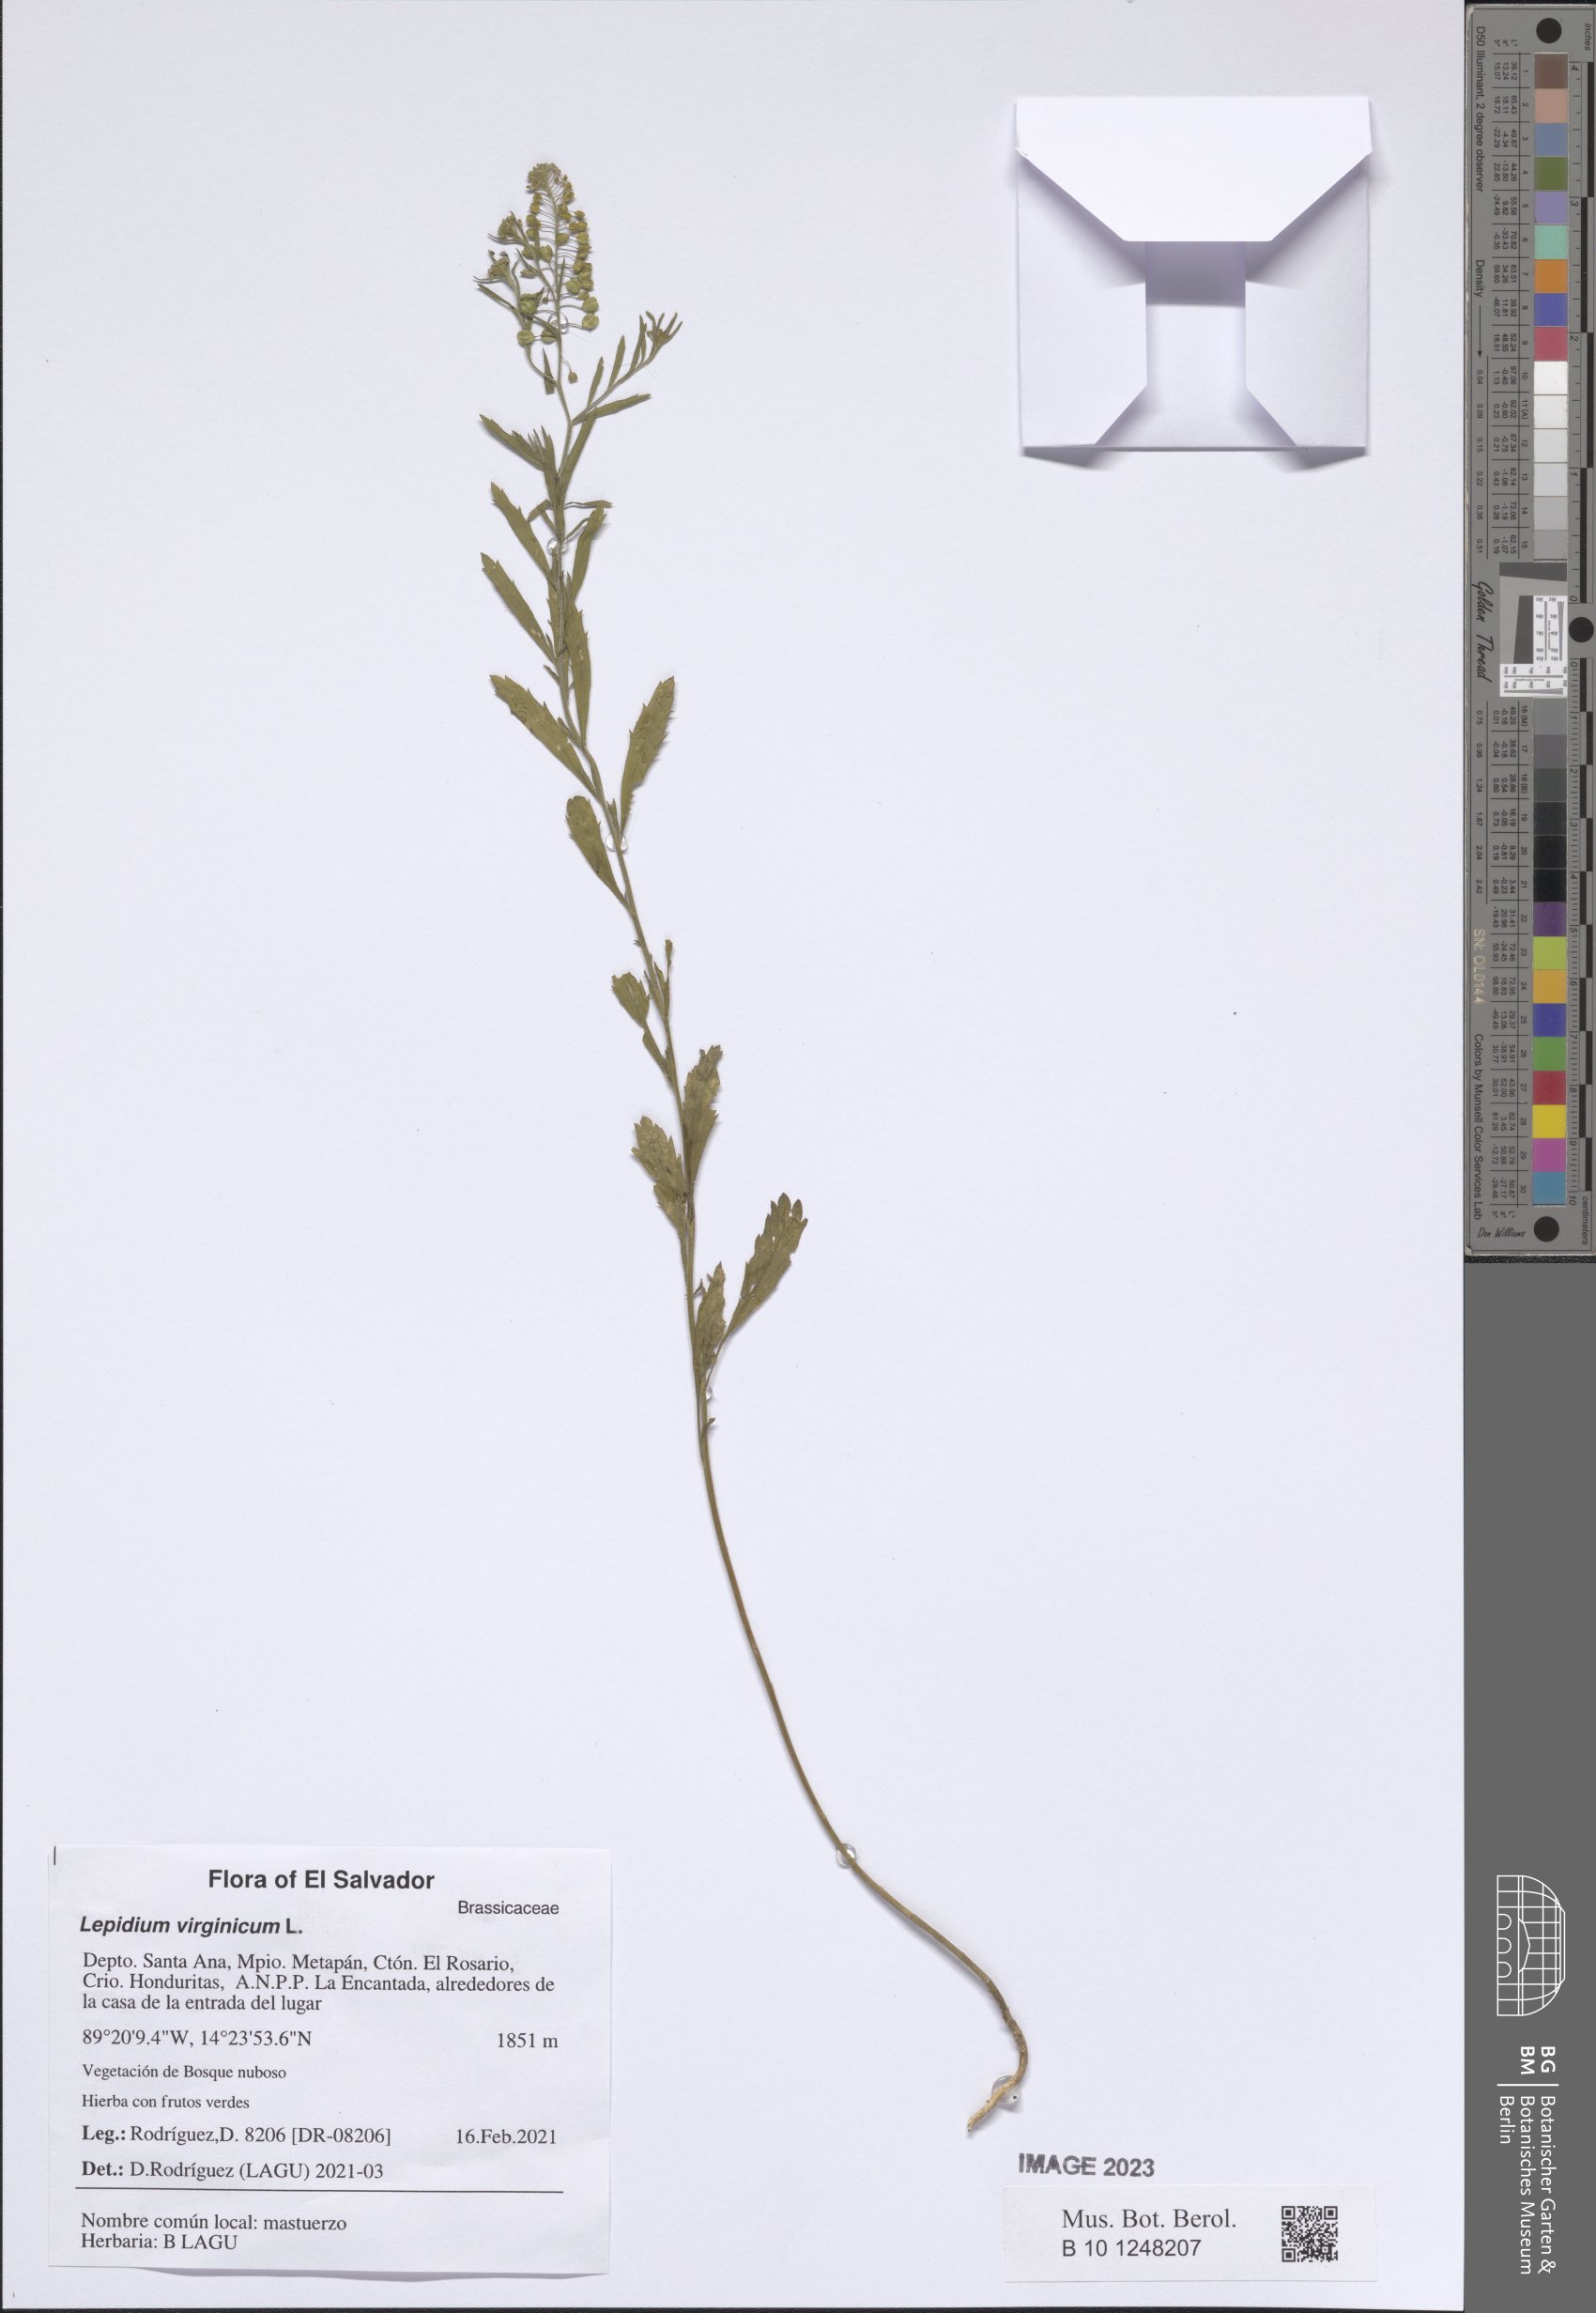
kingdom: Plantae
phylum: Tracheophyta
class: Magnoliopsida
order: Brassicales
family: Brassicaceae
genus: Lepidium
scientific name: Lepidium virginicum
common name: Least pepperwort
